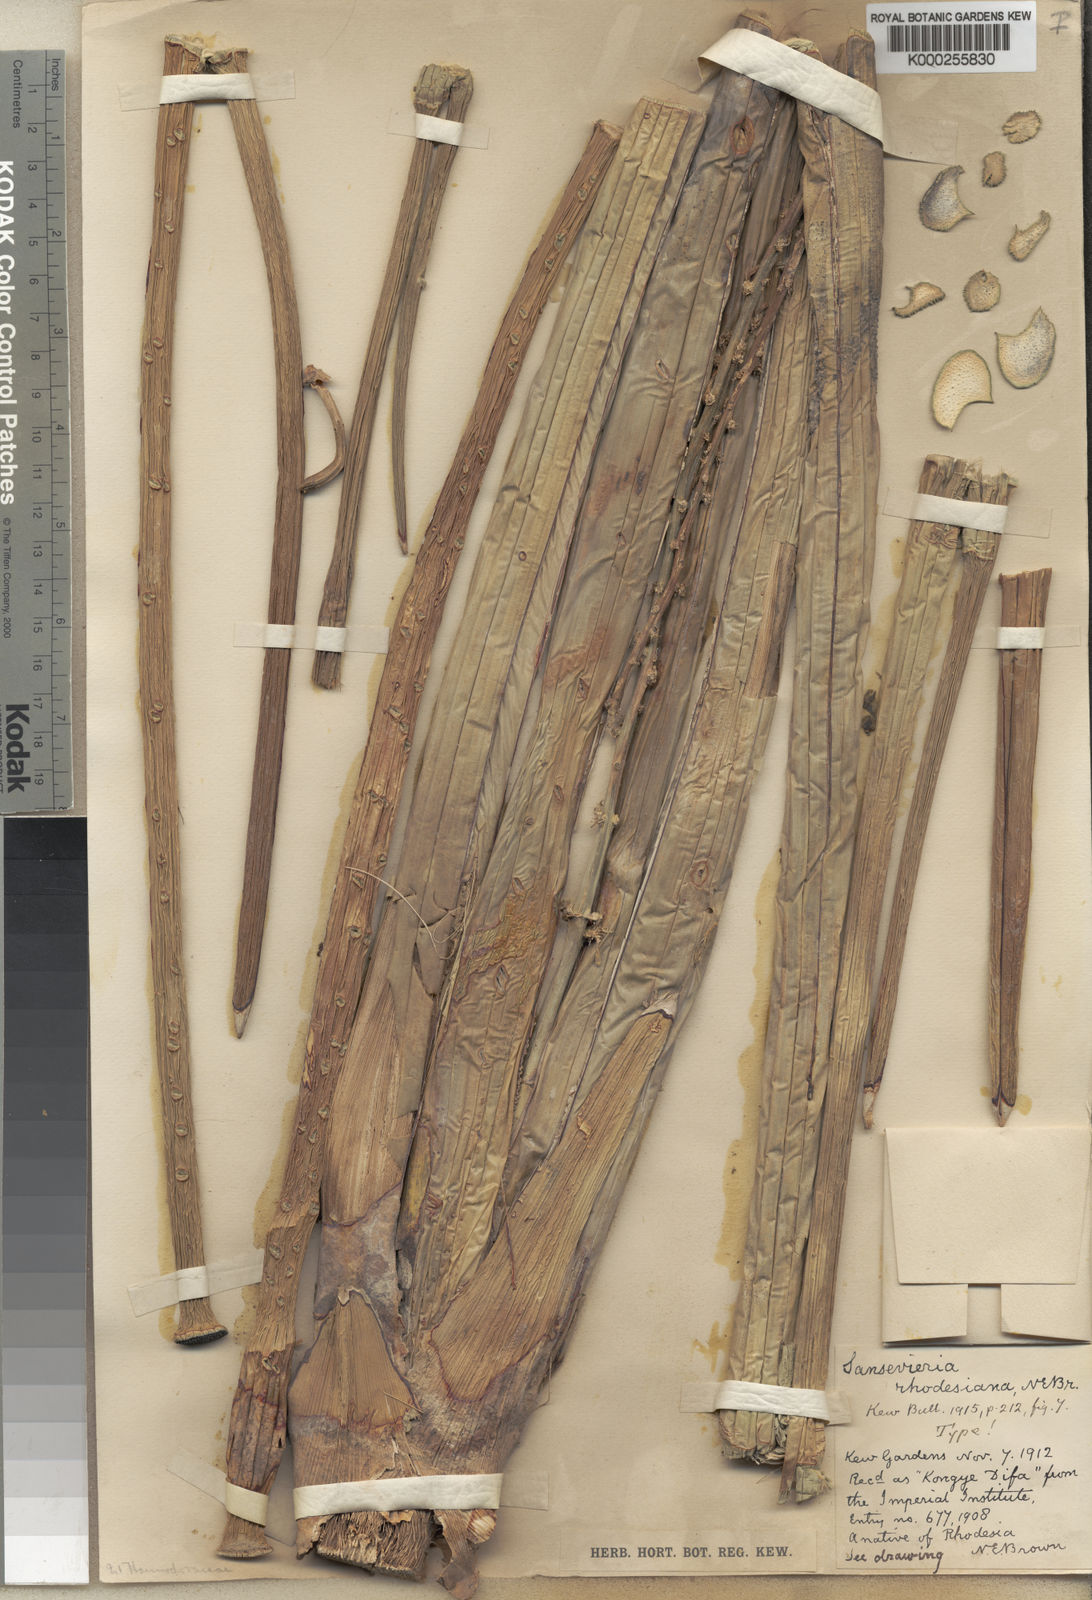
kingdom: Plantae
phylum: Tracheophyta
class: Liliopsida
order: Asparagales
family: Asparagaceae
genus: Dracaena
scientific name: Dracaena pearsonii
